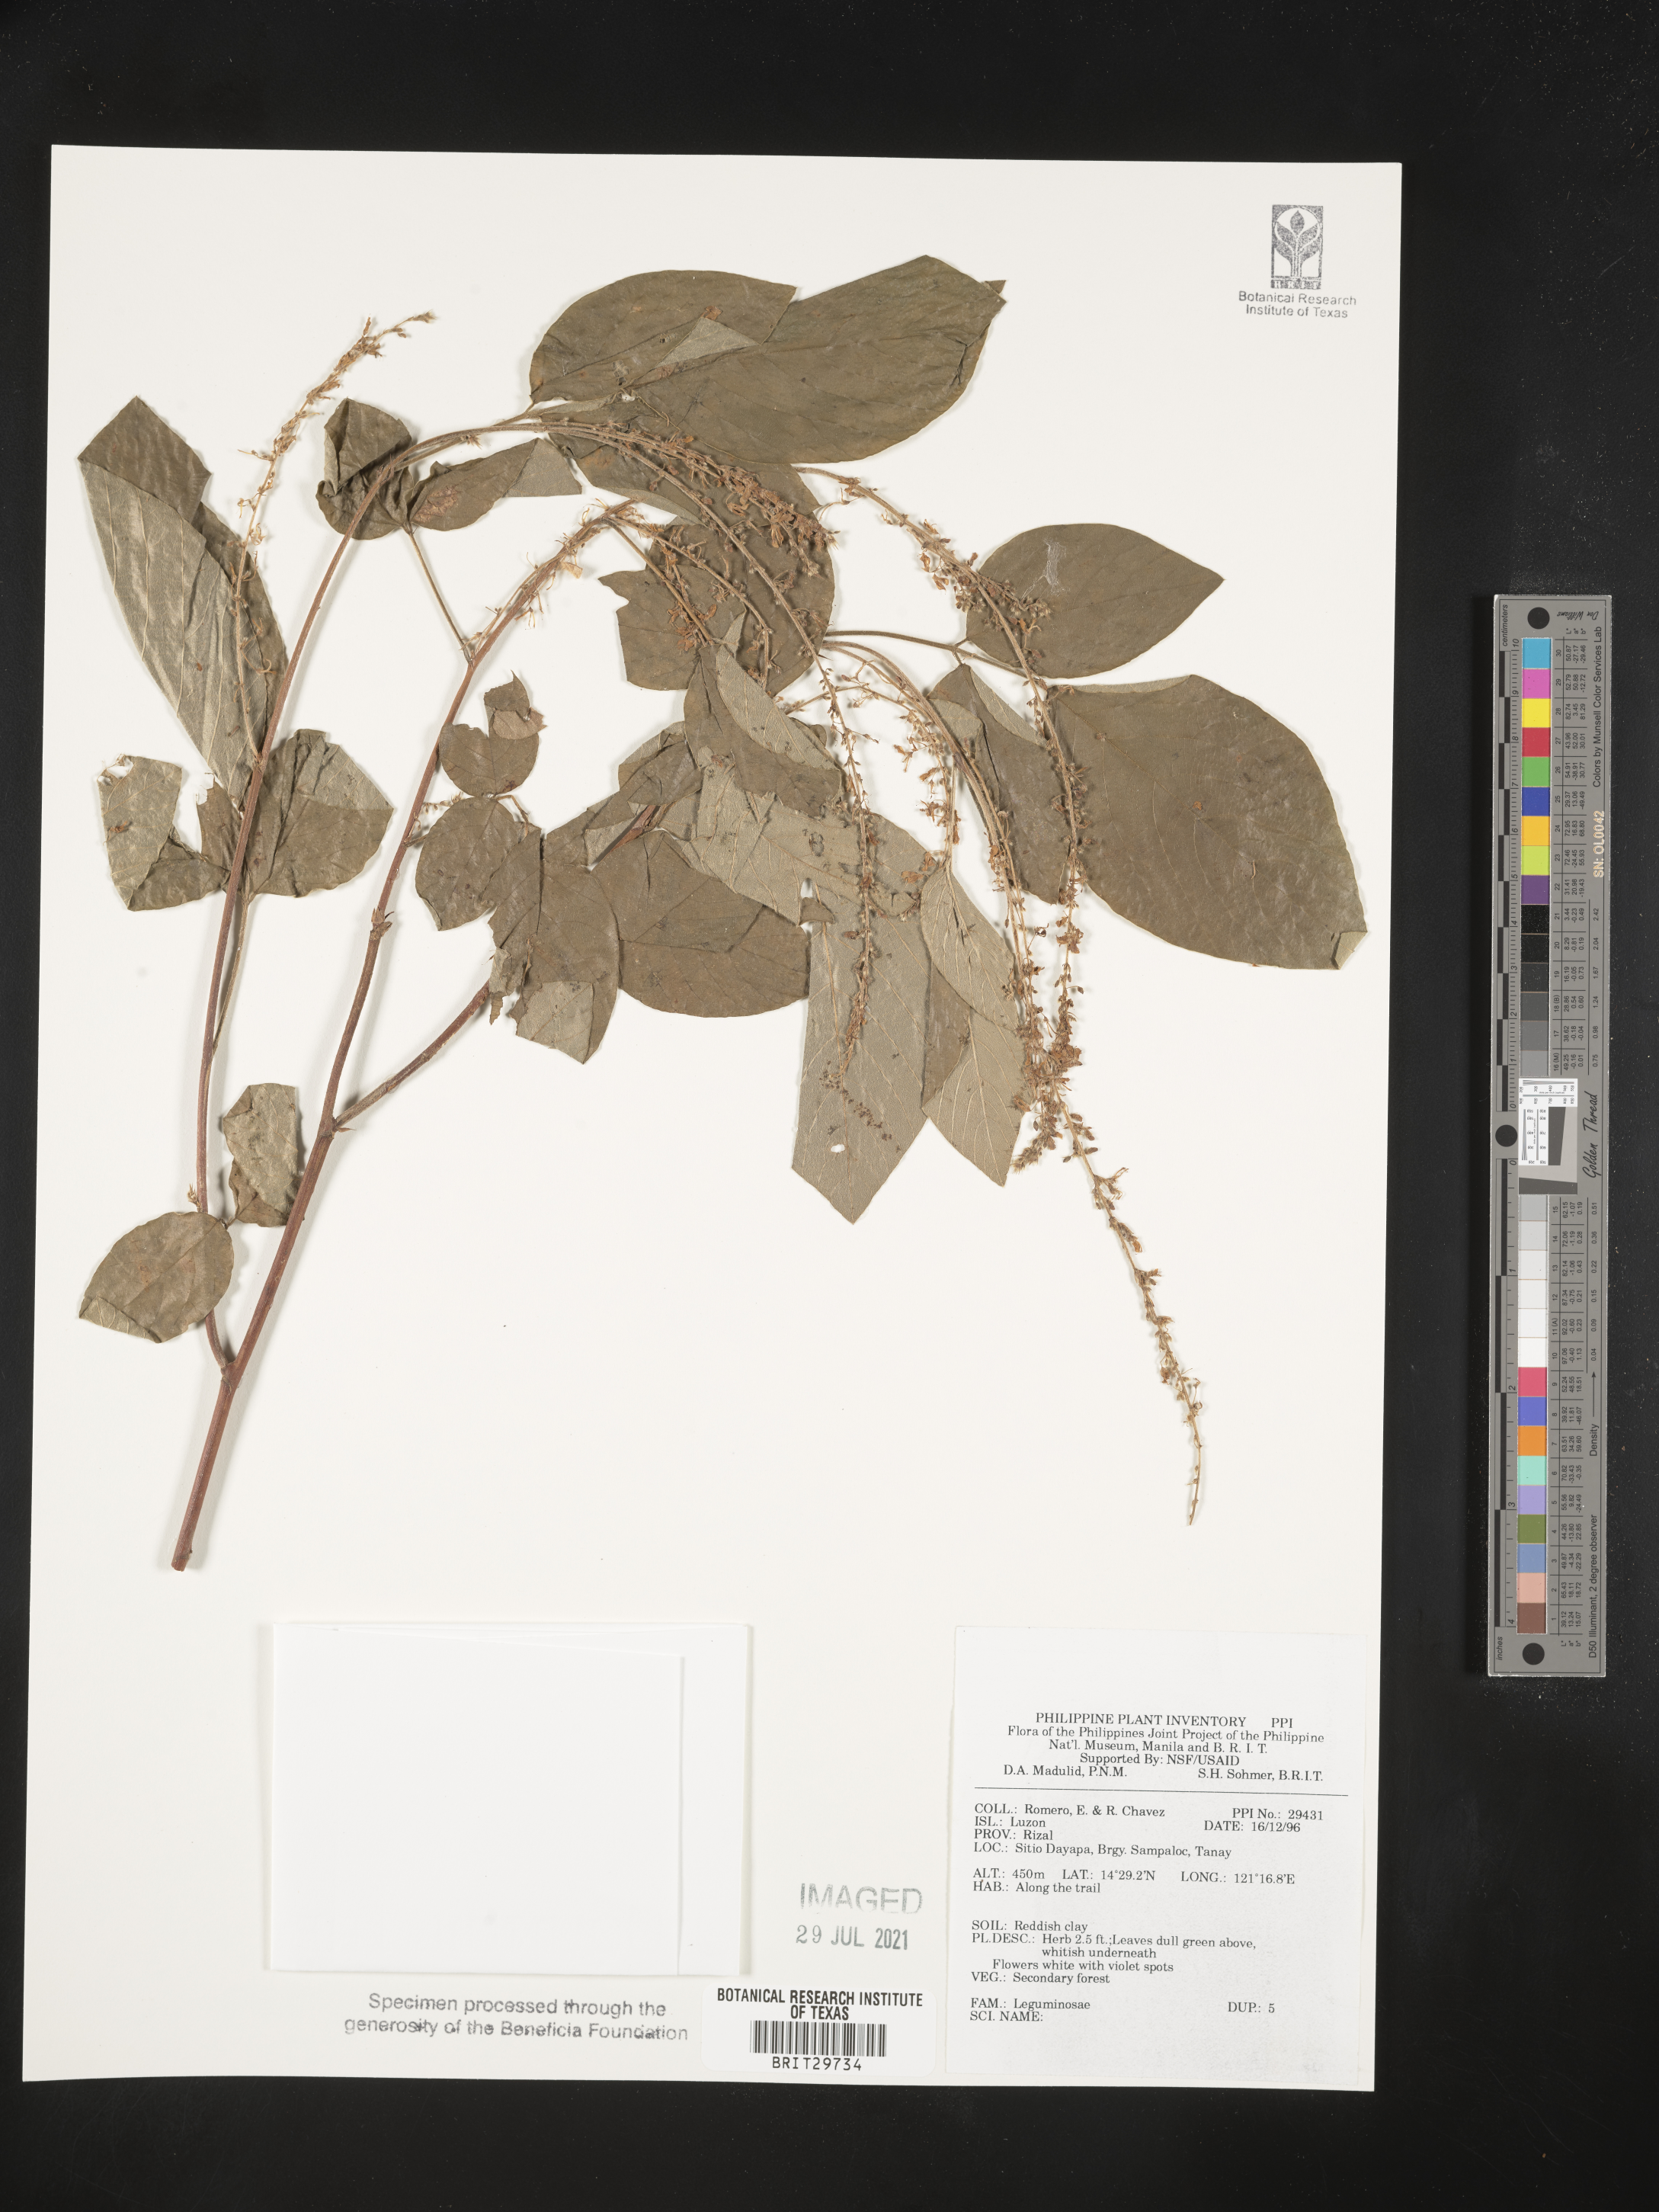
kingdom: Plantae
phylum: Tracheophyta
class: Magnoliopsida
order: Fabales
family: Fabaceae
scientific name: Fabaceae
